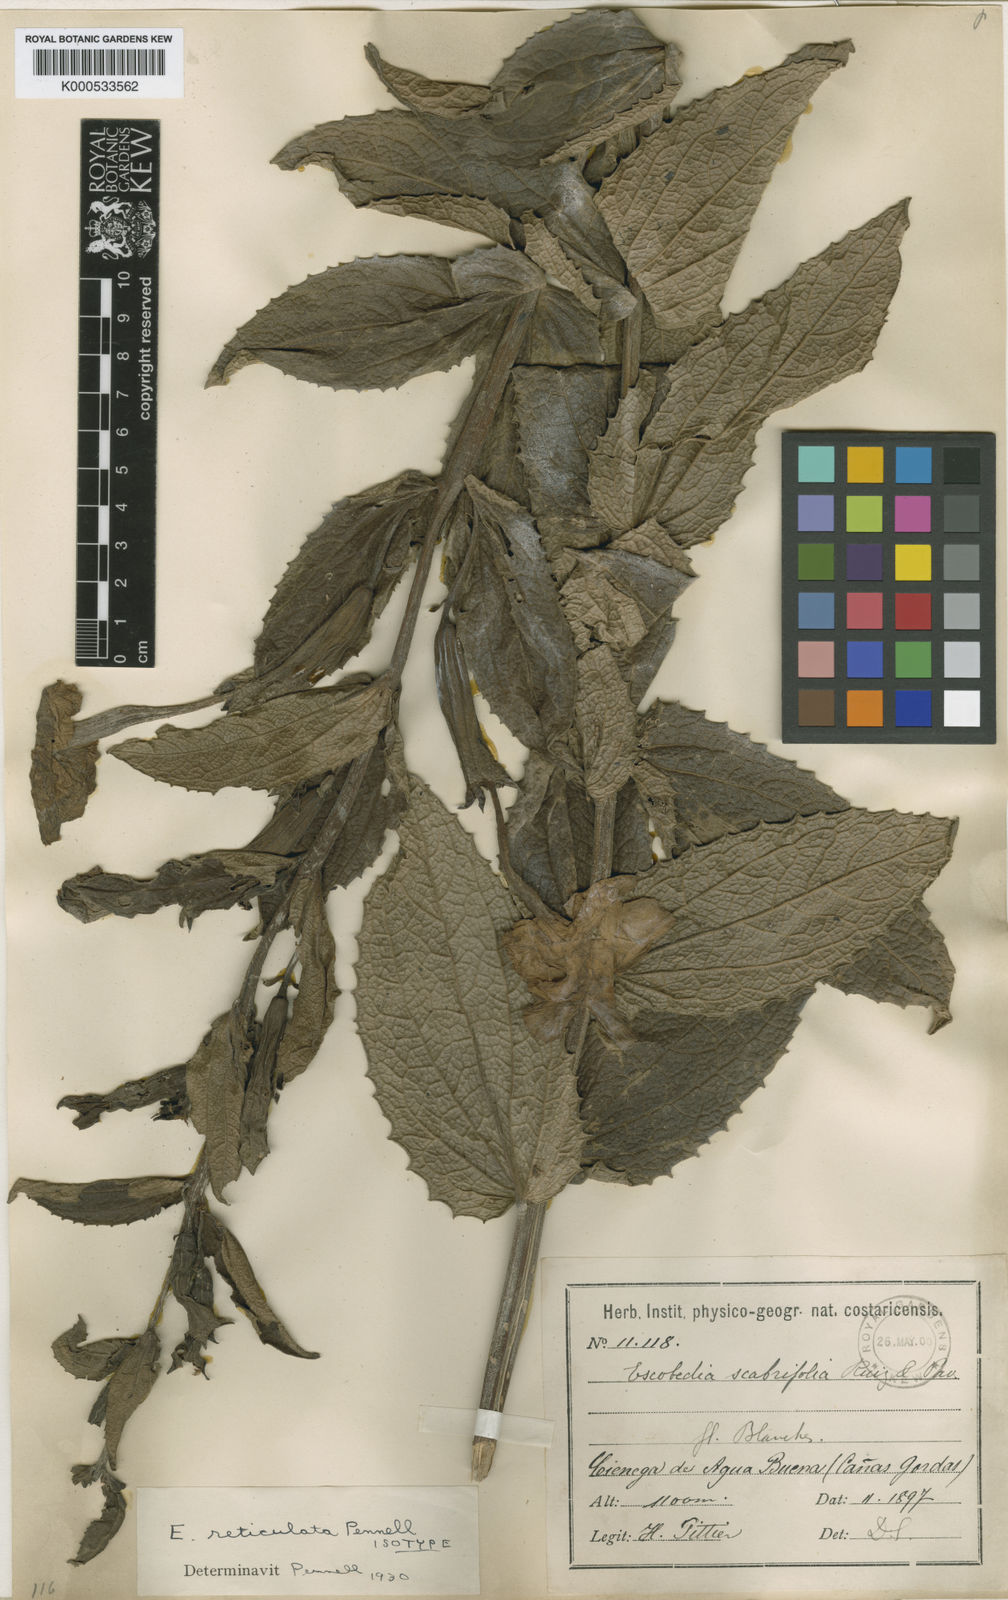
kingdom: Plantae
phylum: Tracheophyta
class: Magnoliopsida
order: Lamiales
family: Orobanchaceae
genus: Escobedia
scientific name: Escobedia grandiflora
